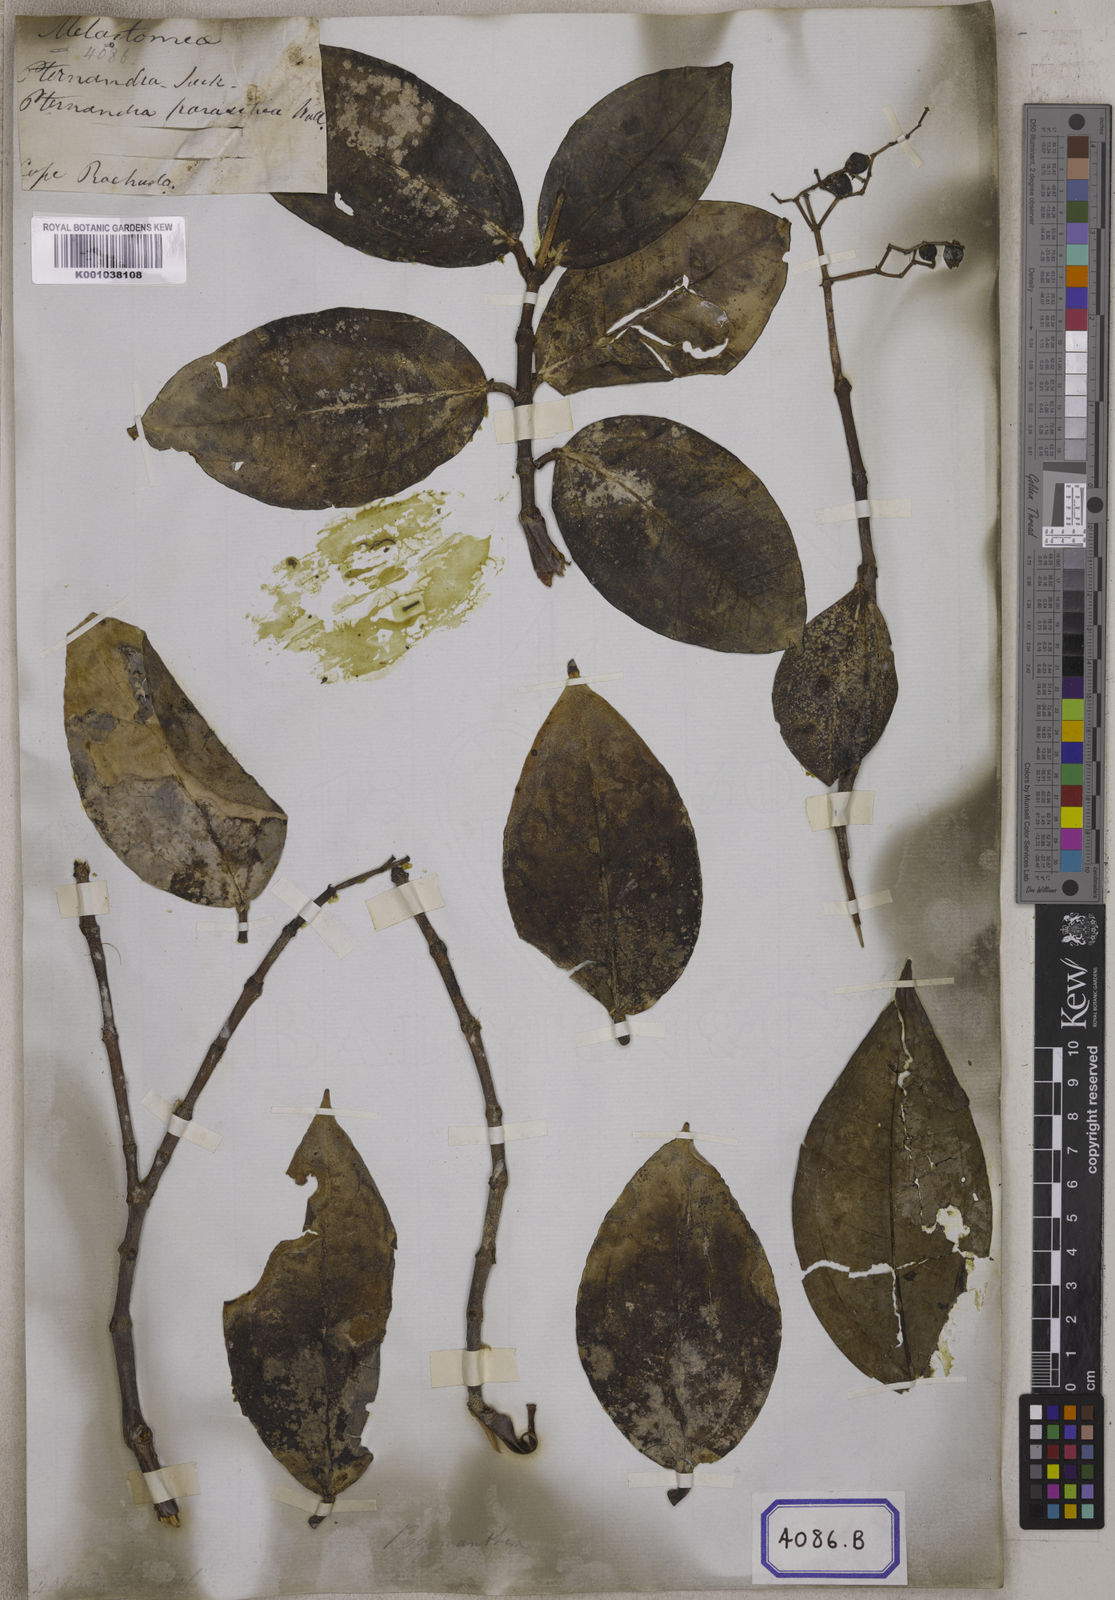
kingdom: Plantae
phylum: Tracheophyta
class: Magnoliopsida
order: Myrtales
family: Melastomataceae
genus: Pachycentria
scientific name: Pachycentria pulverulenta
